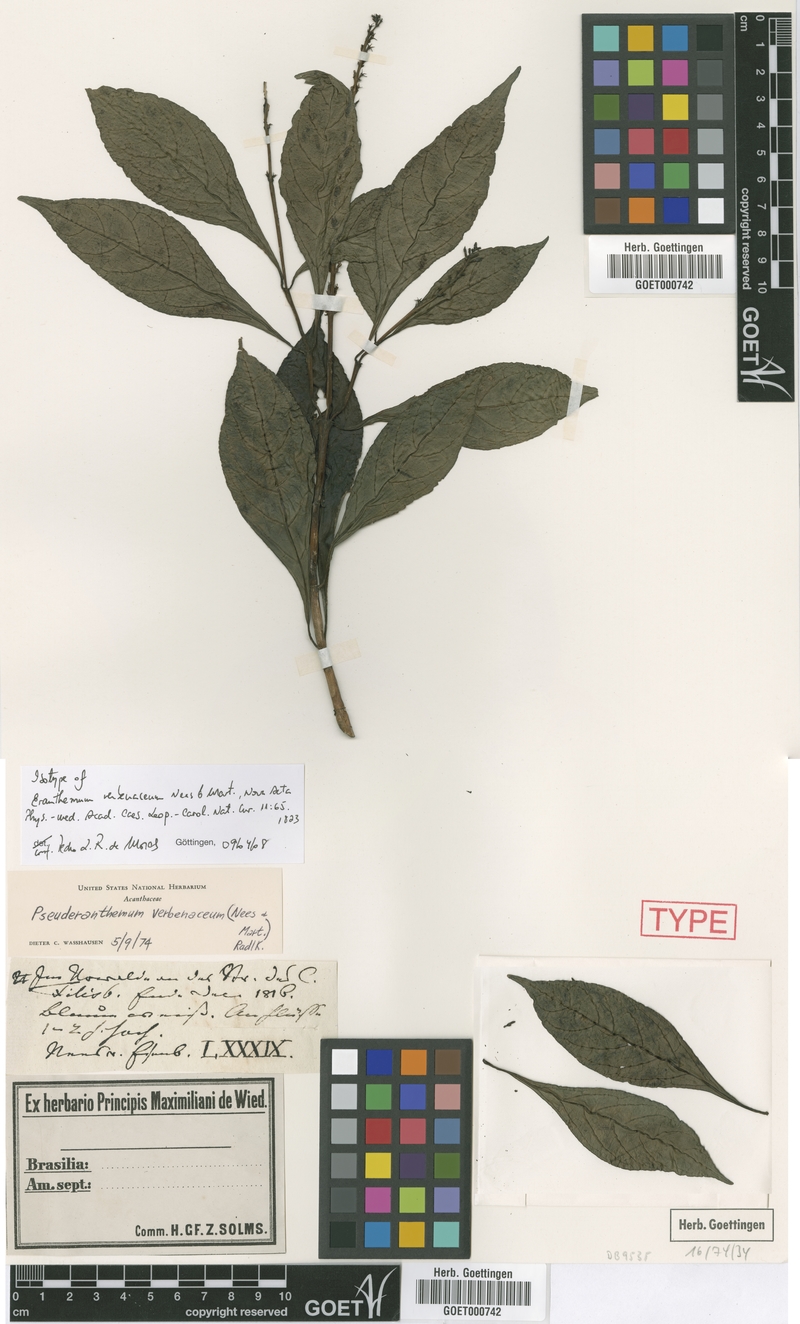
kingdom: Plantae
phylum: Tracheophyta
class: Magnoliopsida
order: Lamiales
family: Acanthaceae
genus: Pseuderanthemum
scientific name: Pseuderanthemum verbenaceum
